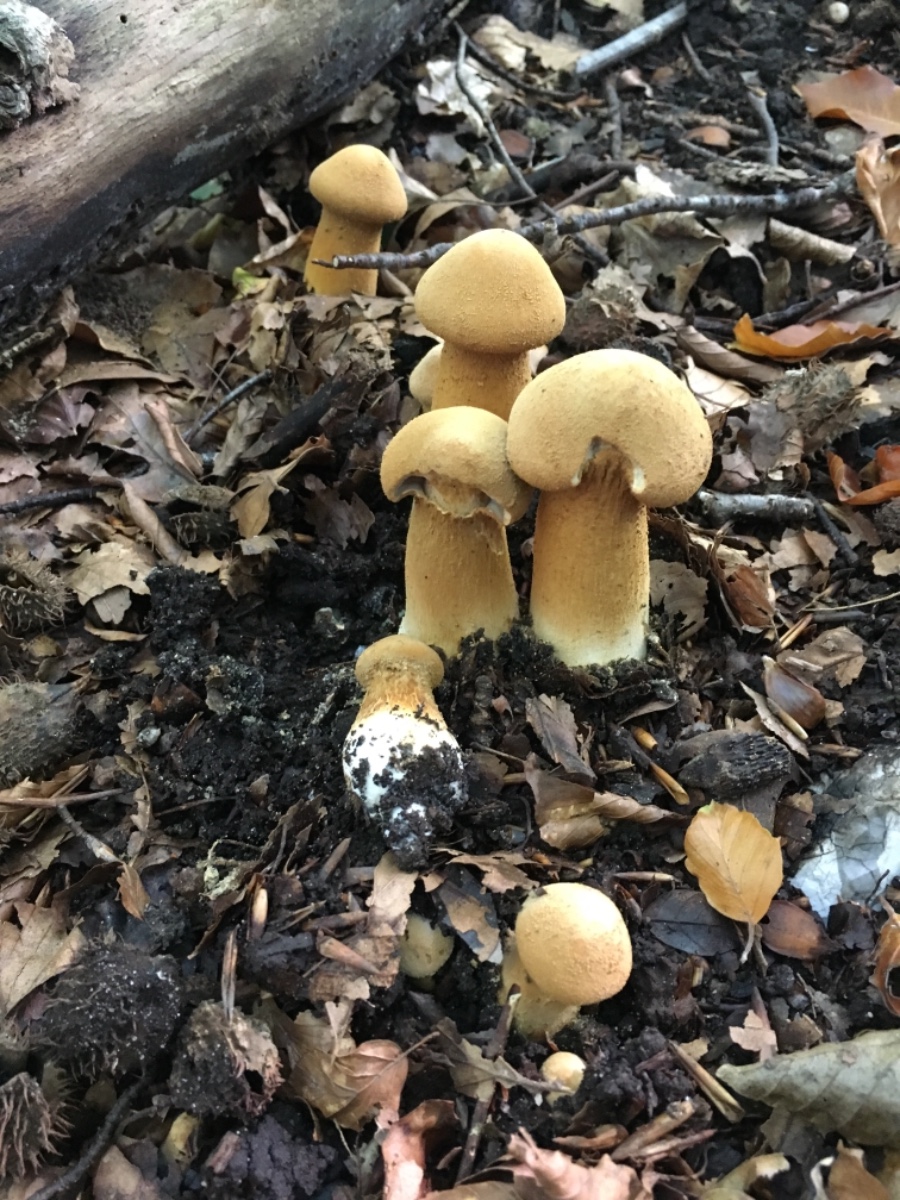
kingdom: Fungi
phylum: Basidiomycota
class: Agaricomycetes
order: Agaricales
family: Tricholomataceae
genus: Phaeolepiota
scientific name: Phaeolepiota aurea
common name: gyldenhat
